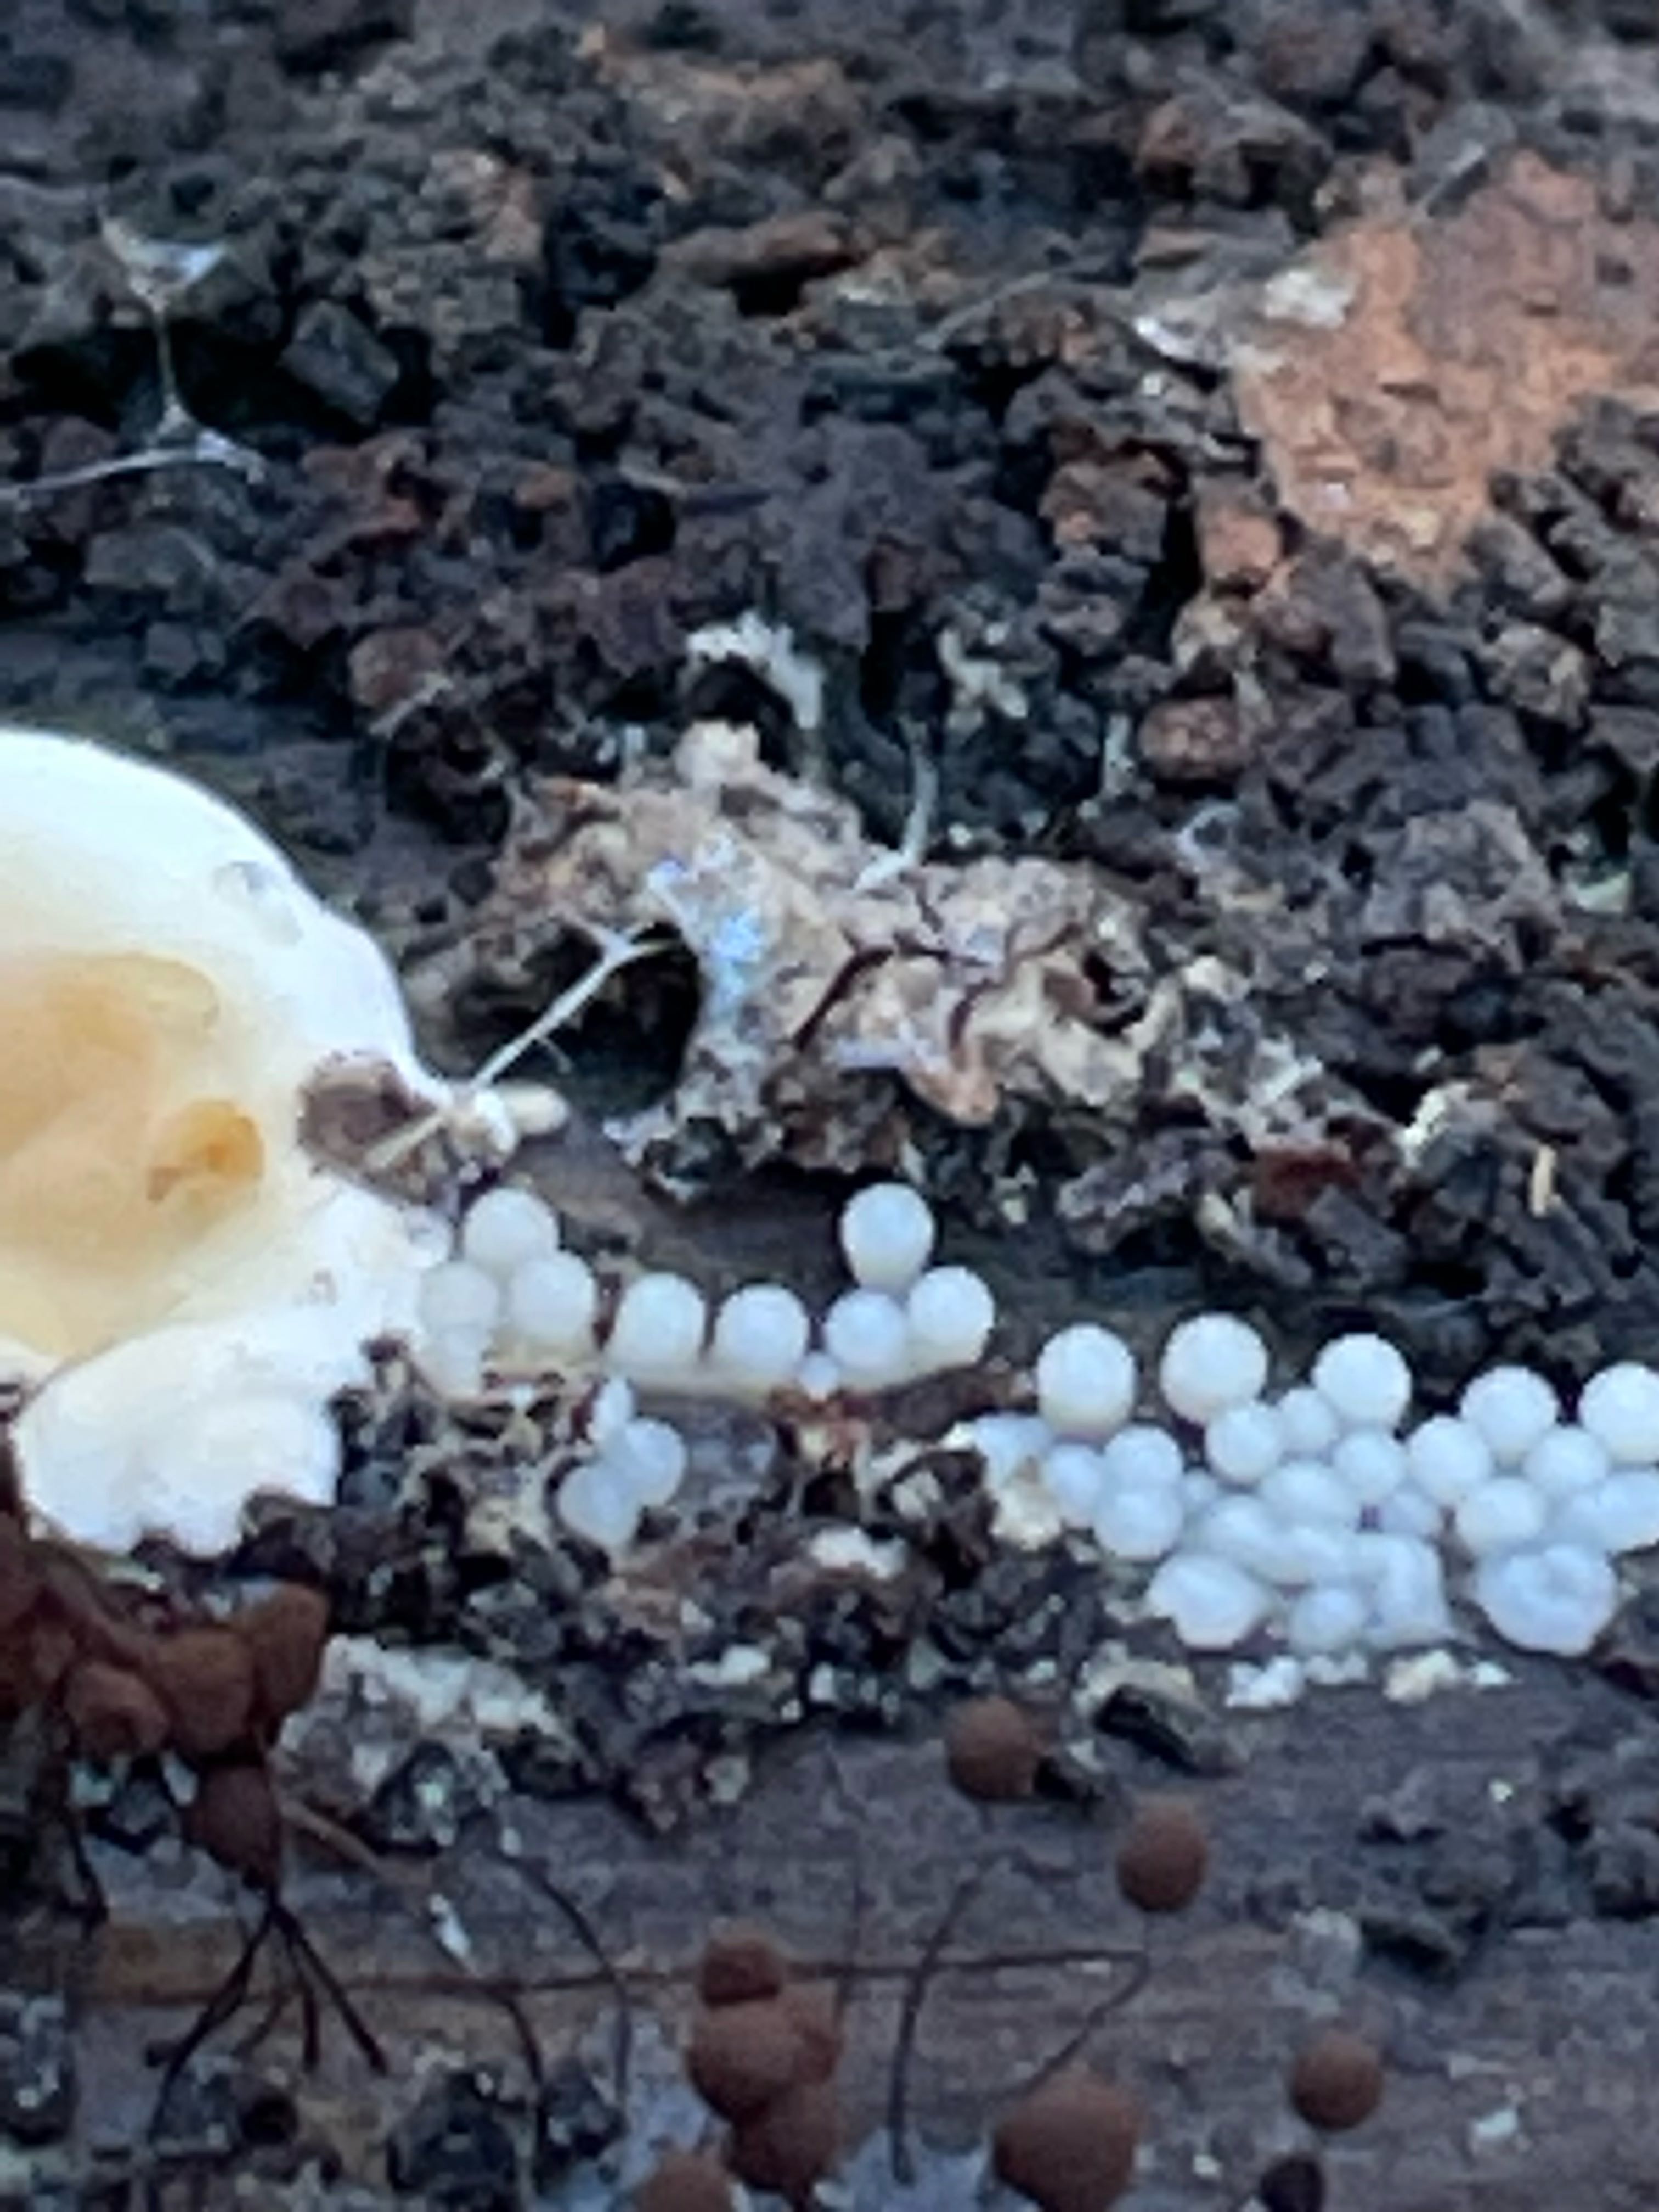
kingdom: Protozoa
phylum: Mycetozoa
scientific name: Mycetozoa
